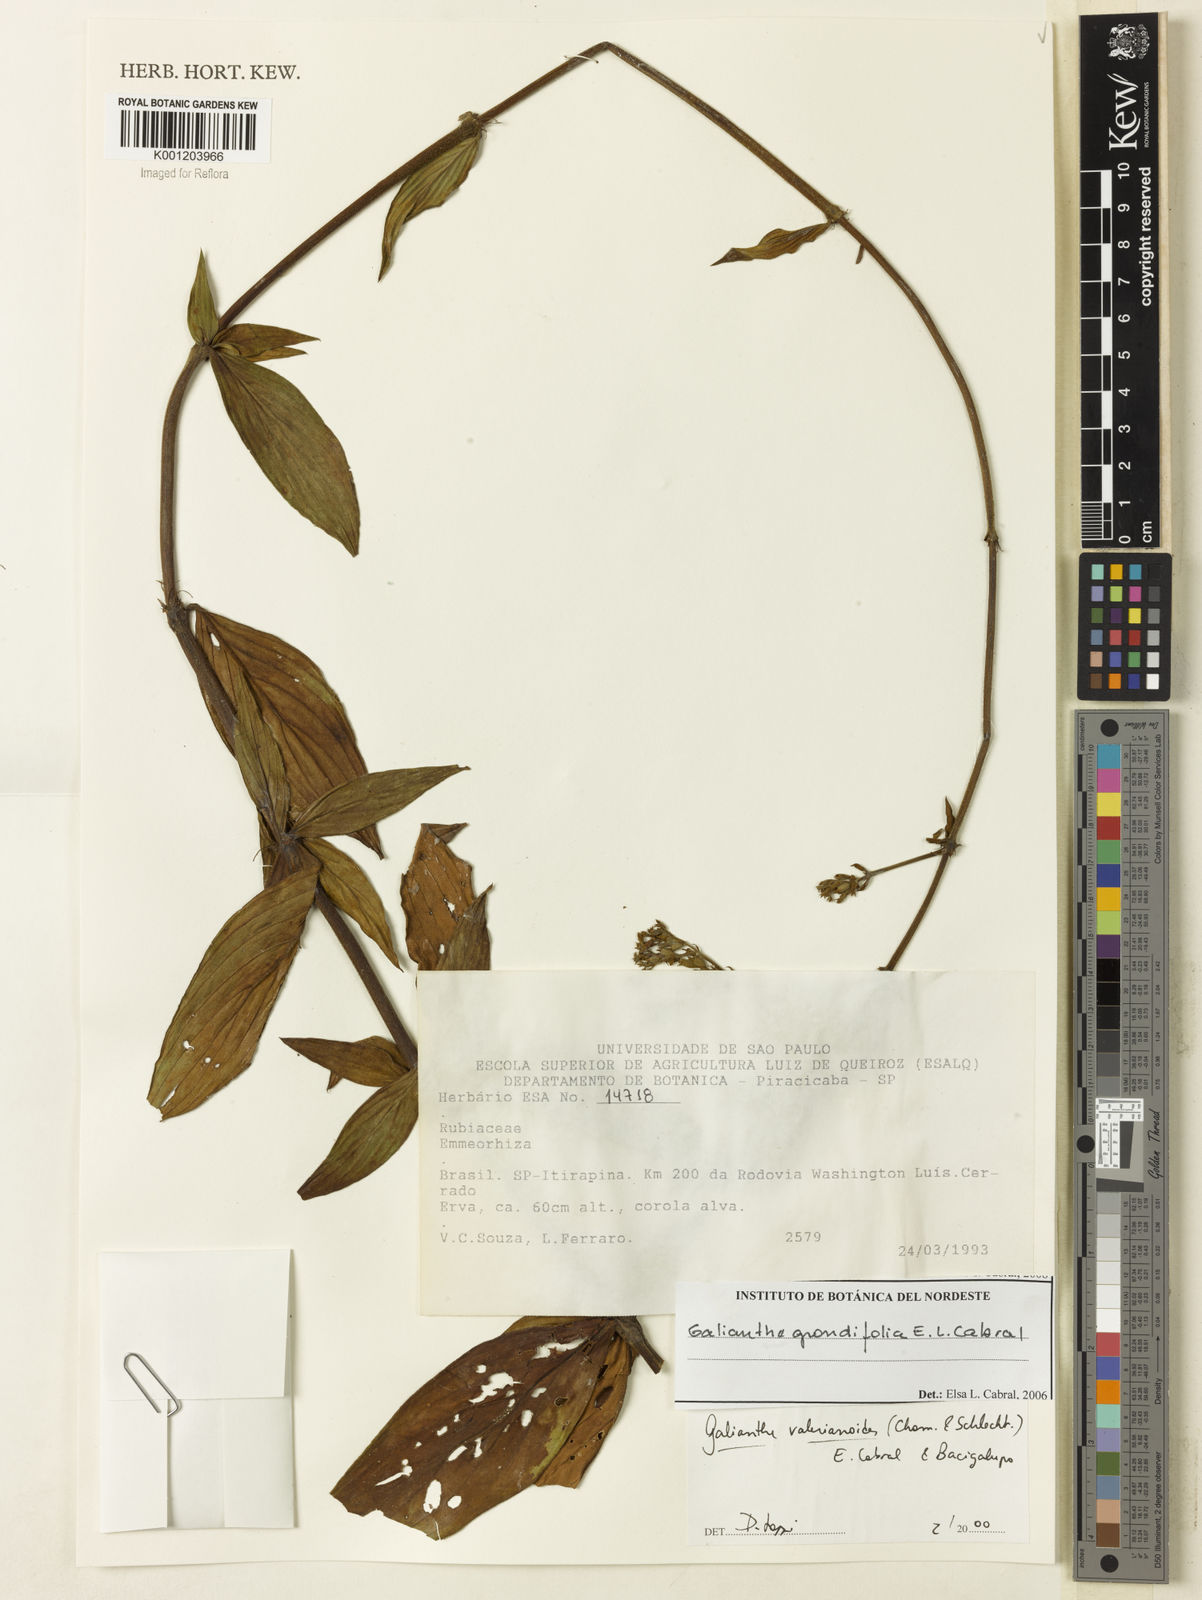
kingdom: Plantae
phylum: Tracheophyta
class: Magnoliopsida
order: Gentianales
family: Rubiaceae
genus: Galianthe
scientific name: Galianthe grandifolia
